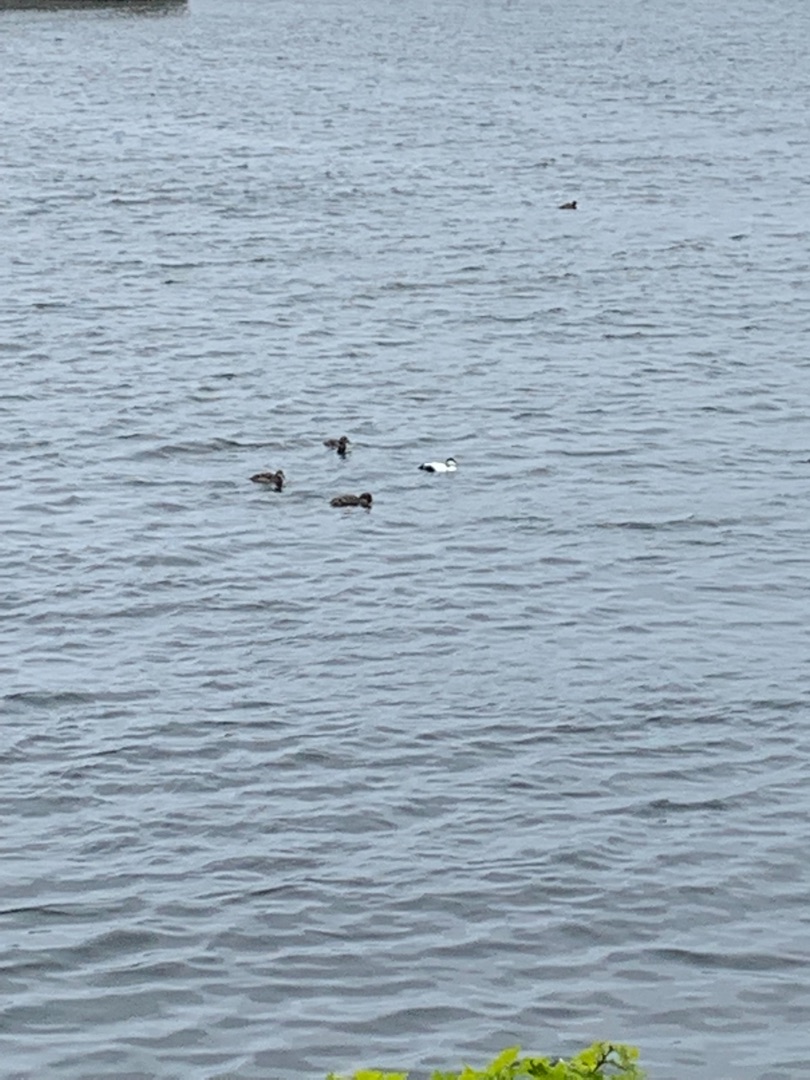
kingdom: Animalia
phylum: Chordata
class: Aves
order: Anseriformes
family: Anatidae
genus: Somateria
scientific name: Somateria mollissima
